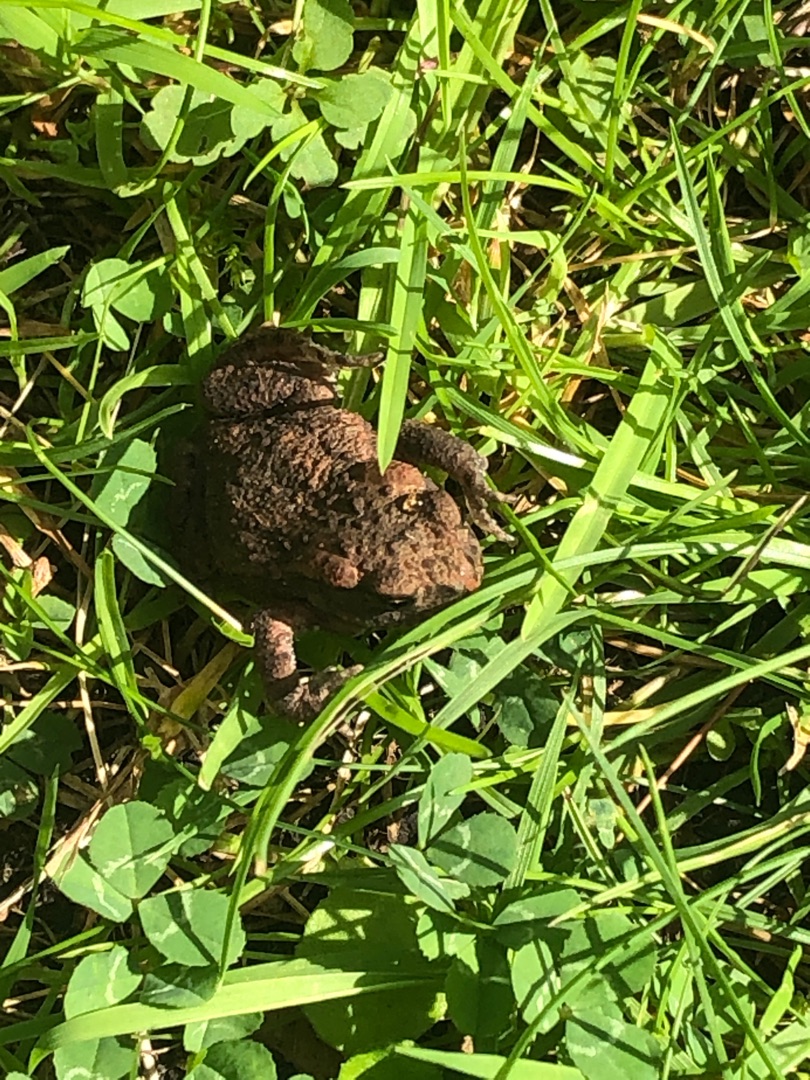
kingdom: Animalia
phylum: Chordata
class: Amphibia
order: Anura
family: Bufonidae
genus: Bufo
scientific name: Bufo bufo
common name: Skrubtudse
